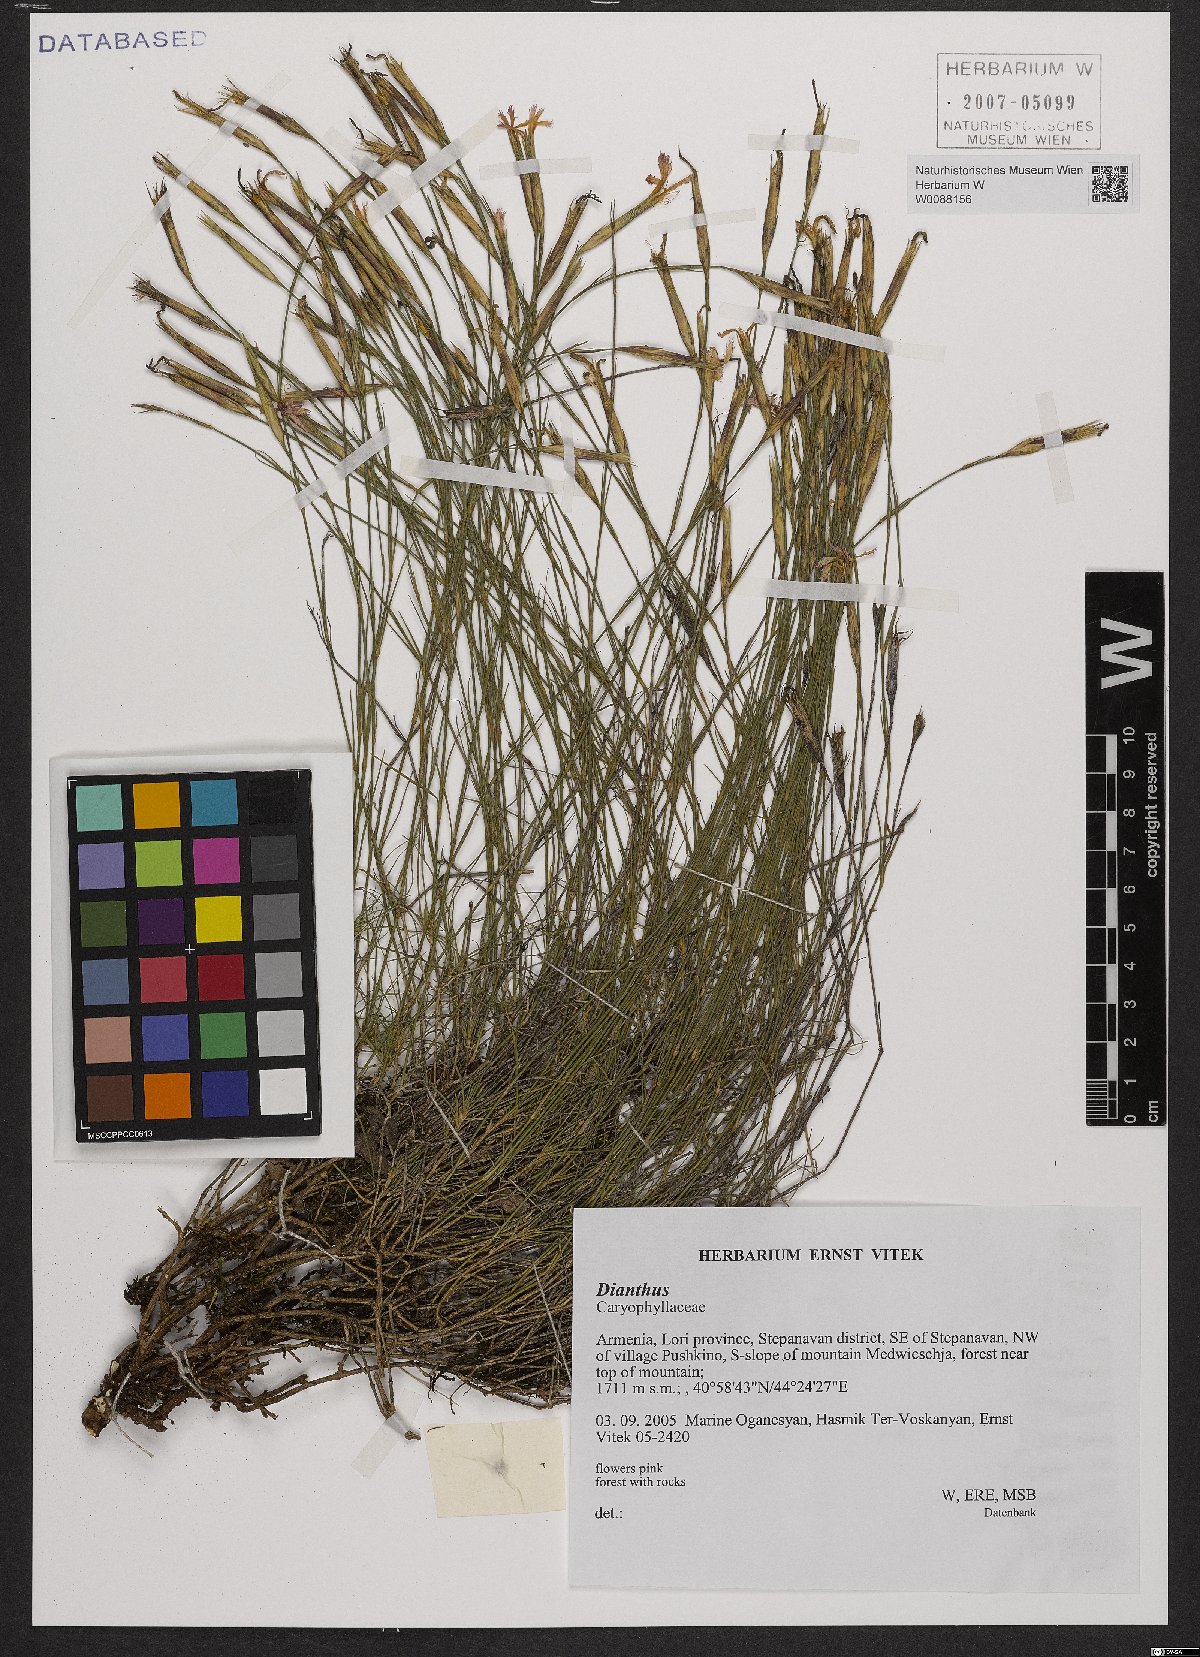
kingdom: Plantae
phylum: Tracheophyta
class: Magnoliopsida
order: Caryophyllales
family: Caryophyllaceae
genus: Dianthus
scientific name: Dianthus
